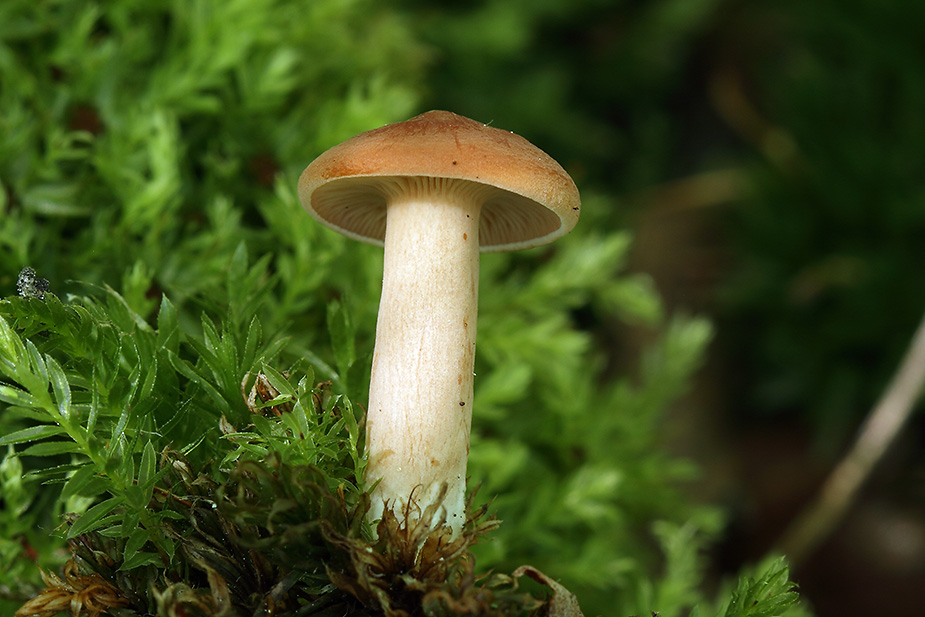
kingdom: Fungi
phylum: Basidiomycota
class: Agaricomycetes
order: Russulales
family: Russulaceae
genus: Lactarius
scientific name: Lactarius tabidus
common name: rynket mælkehat
